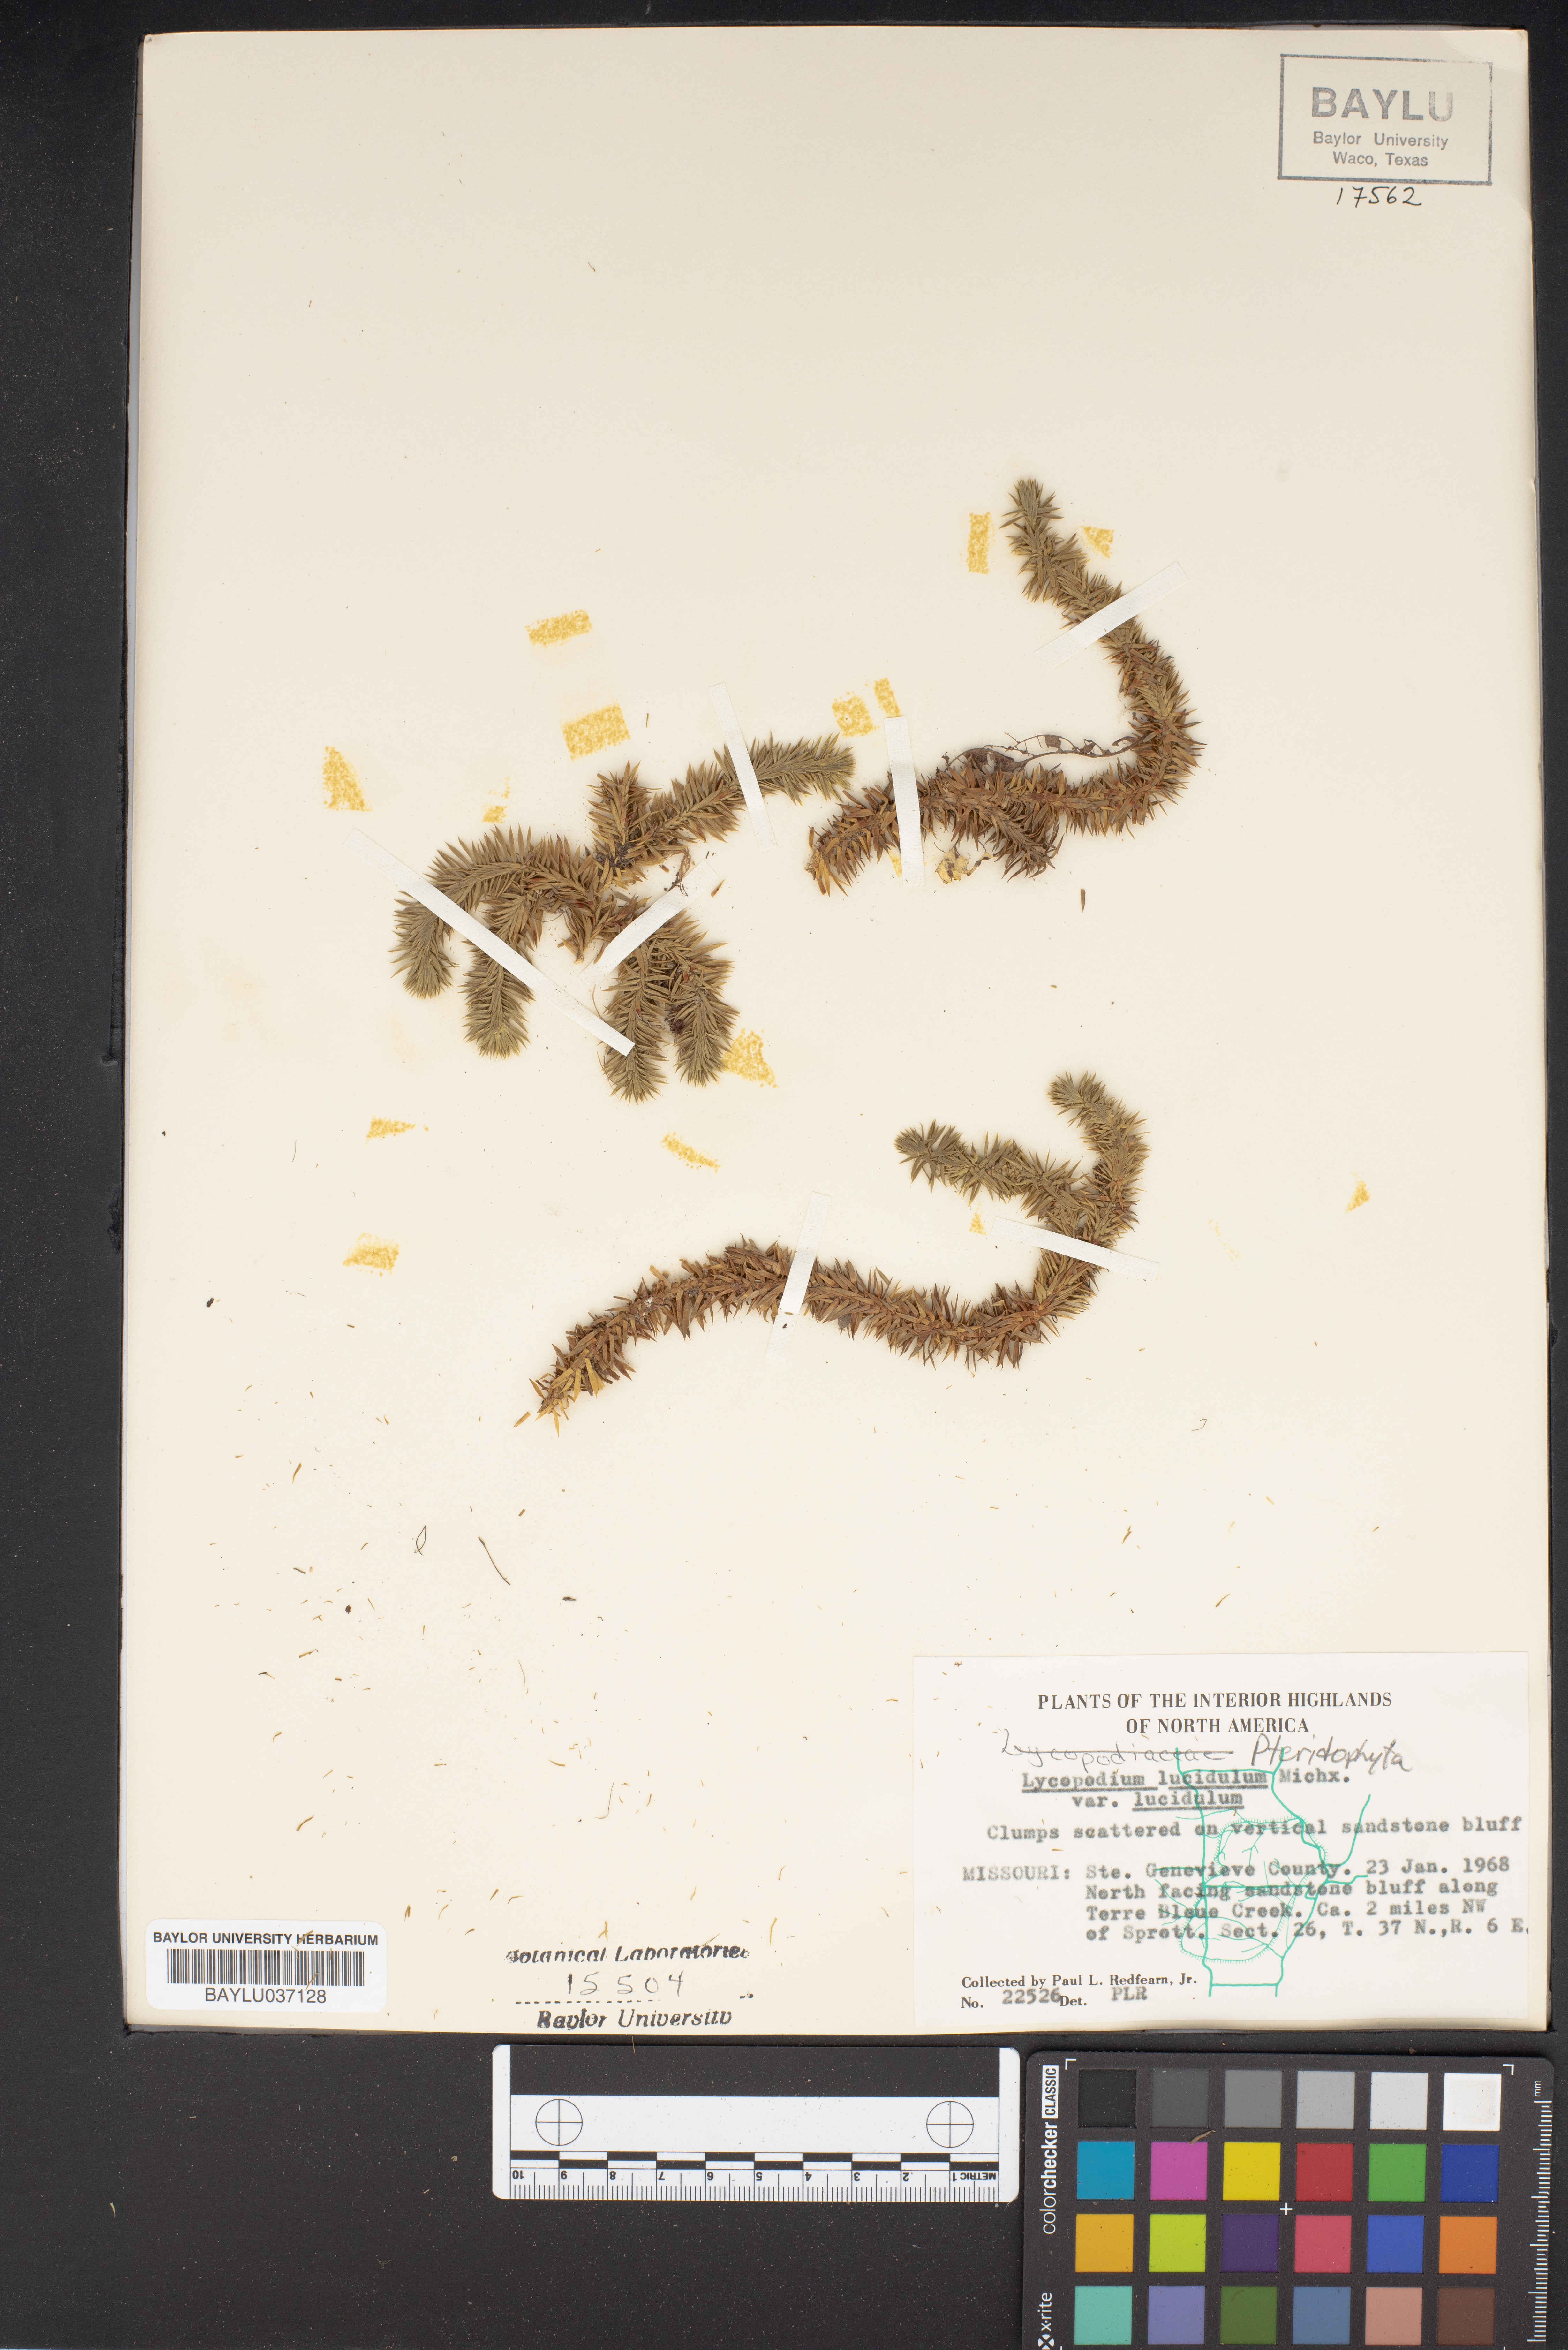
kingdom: Plantae
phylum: Tracheophyta
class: Lycopodiopsida
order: Lycopodiales
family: Lycopodiaceae
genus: Huperzia
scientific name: Huperzia lucidula
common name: Shining clubmoss
